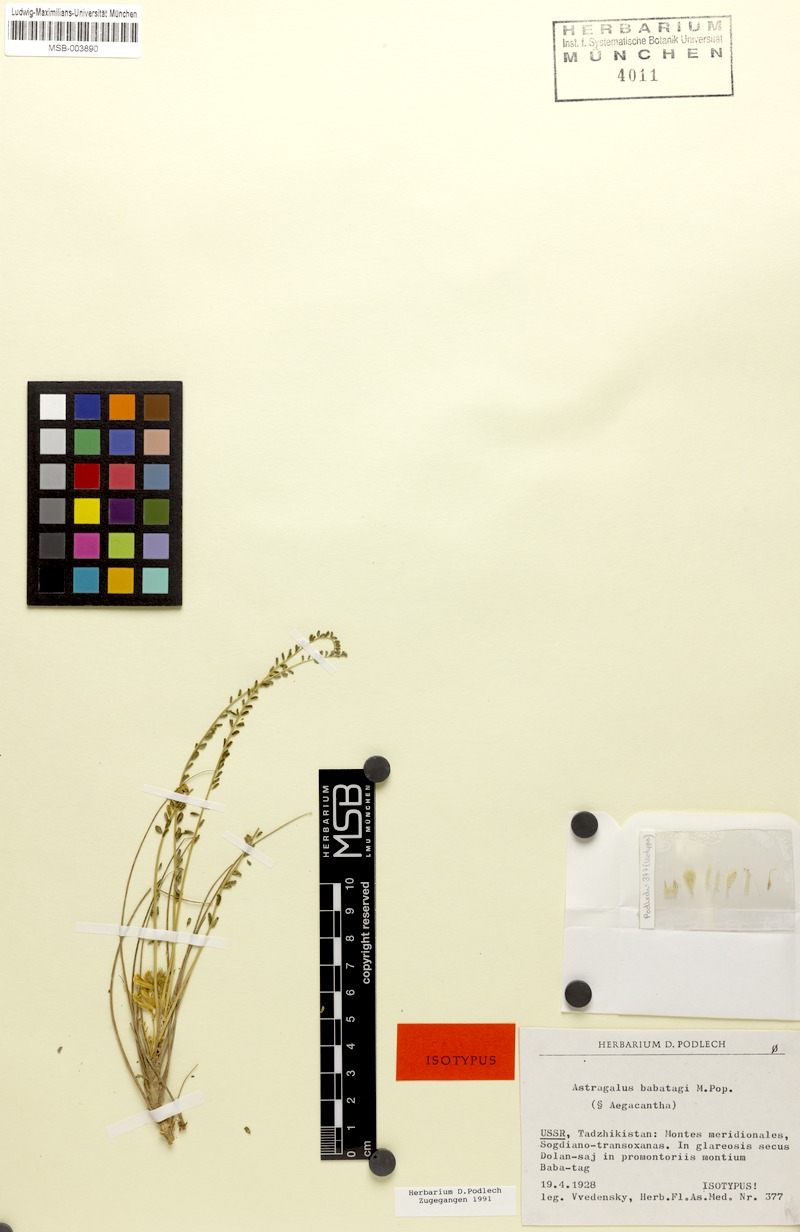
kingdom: Plantae
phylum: Tracheophyta
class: Magnoliopsida
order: Fabales
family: Fabaceae
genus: Astragalus
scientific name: Astragalus babatagi
